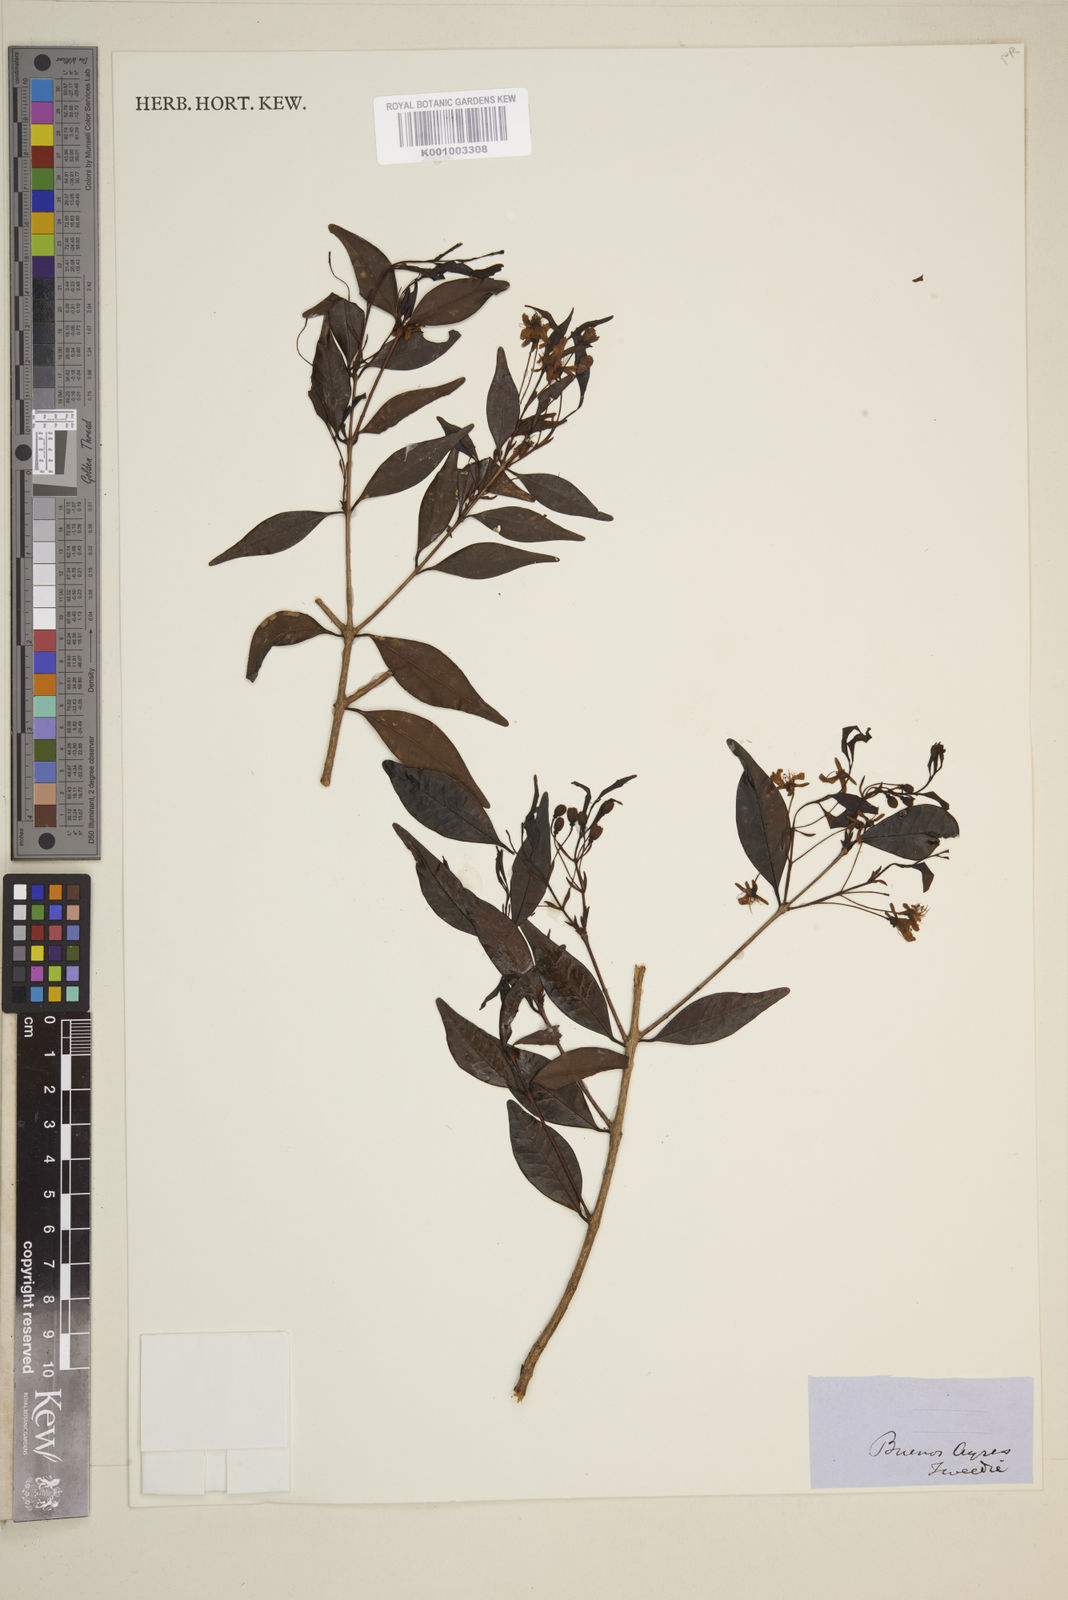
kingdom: Plantae
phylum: Tracheophyta
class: Magnoliopsida
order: Myrtales
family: Myrtaceae
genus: Eugenia
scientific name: Eugenia
